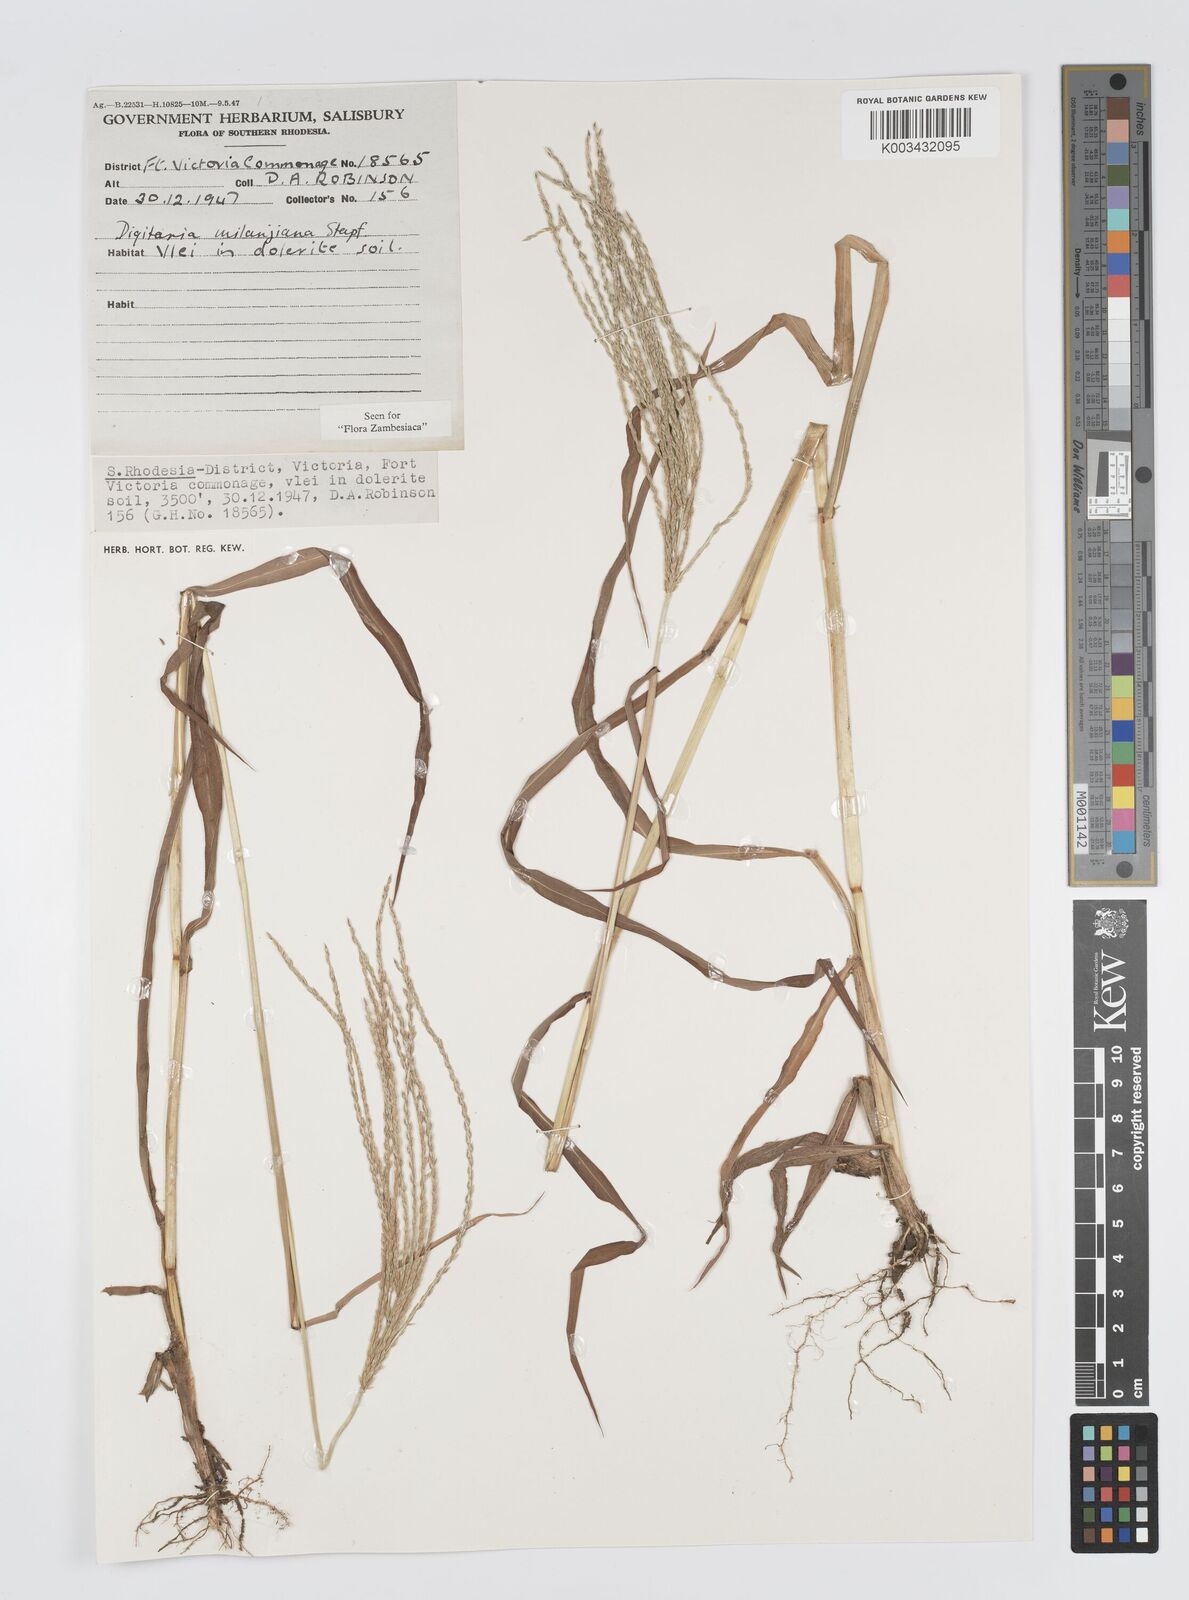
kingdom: Plantae
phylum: Tracheophyta
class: Liliopsida
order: Poales
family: Poaceae
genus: Digitaria
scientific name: Digitaria milanjiana
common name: Madagascar crabgrass
